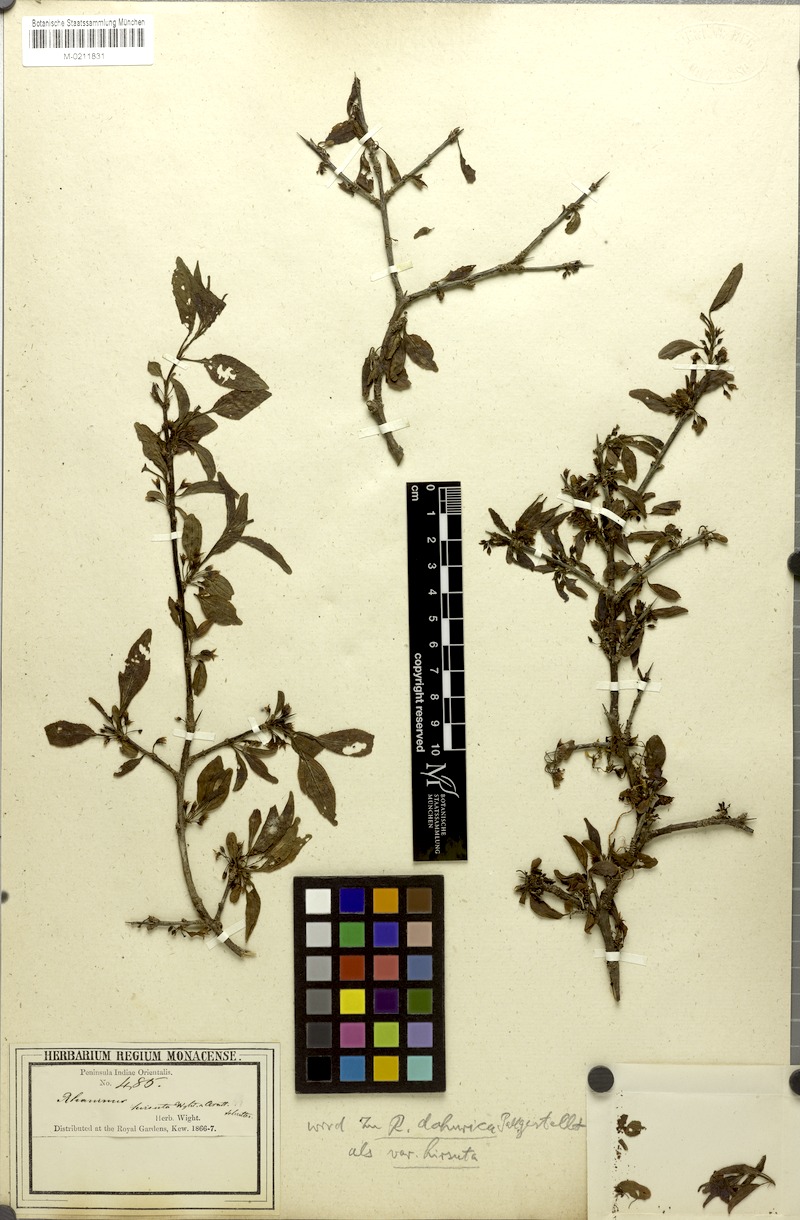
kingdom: Plantae
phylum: Tracheophyta
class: Magnoliopsida
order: Rosales
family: Rhamnaceae
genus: Rhamnus
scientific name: Rhamnus virgata
